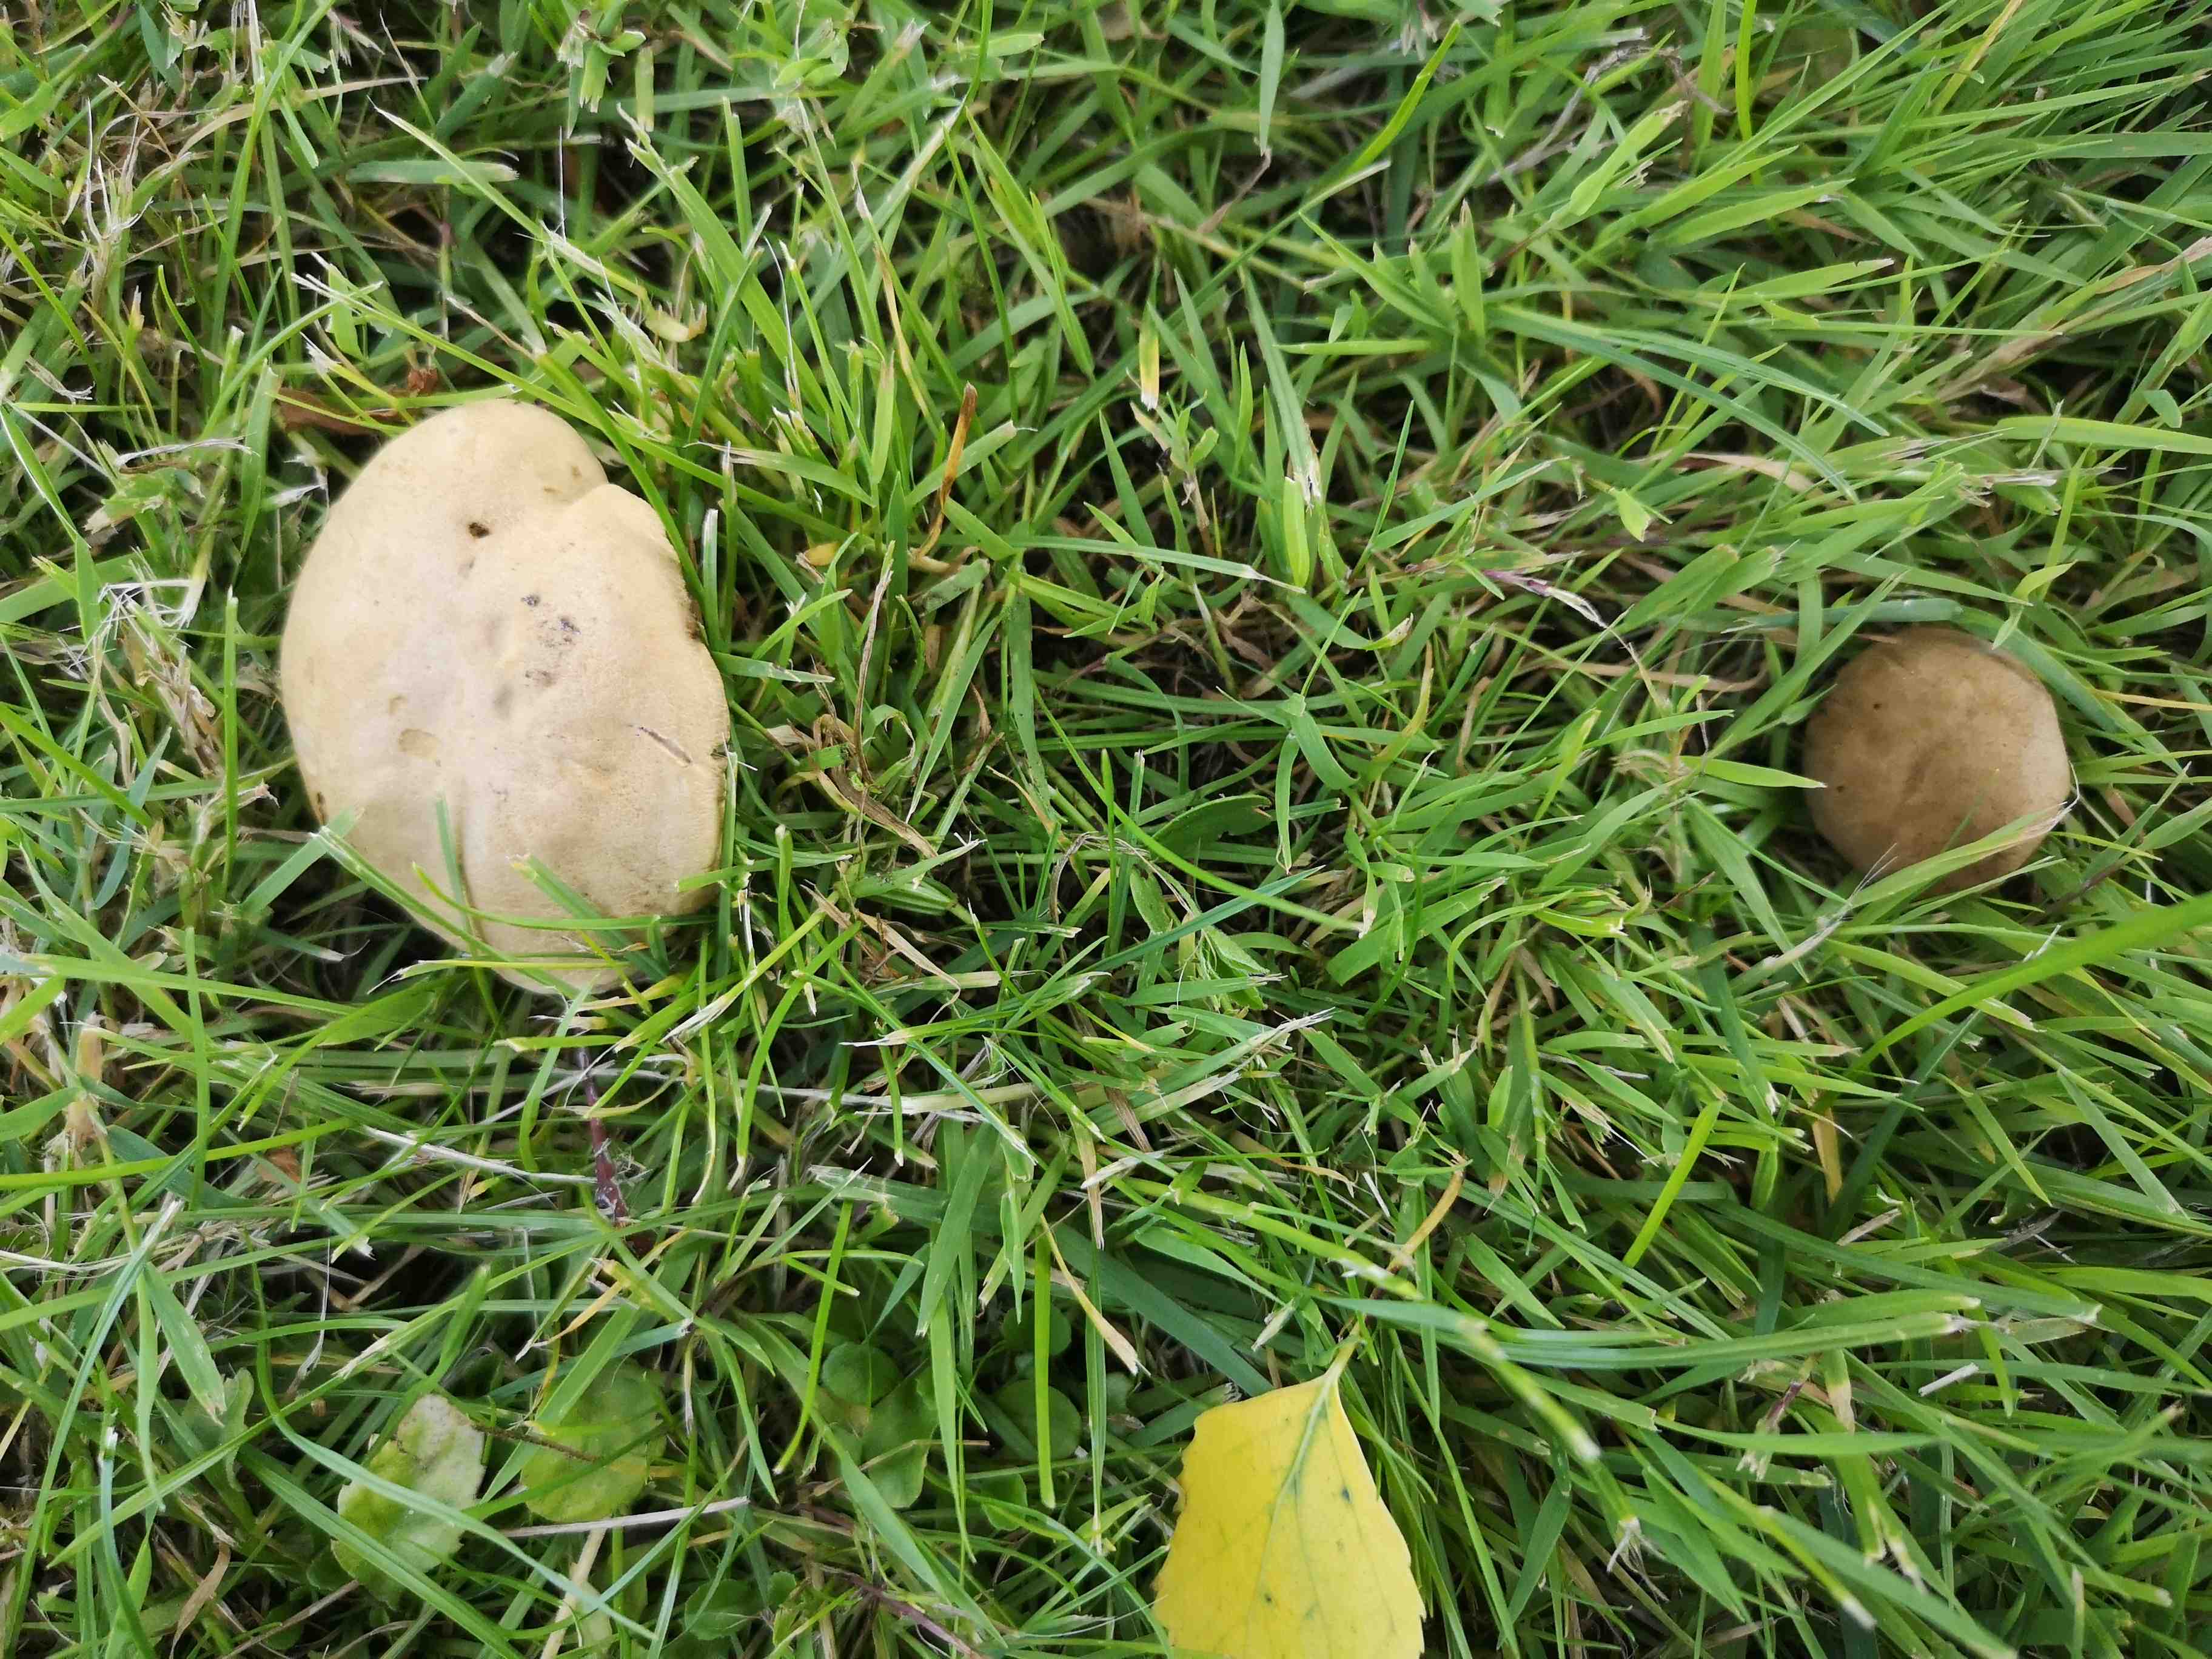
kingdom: Fungi
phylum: Basidiomycota
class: Agaricomycetes
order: Boletales
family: Boletaceae
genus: Hortiboletus
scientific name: Hortiboletus bubalinus
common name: aurora-rørhat
